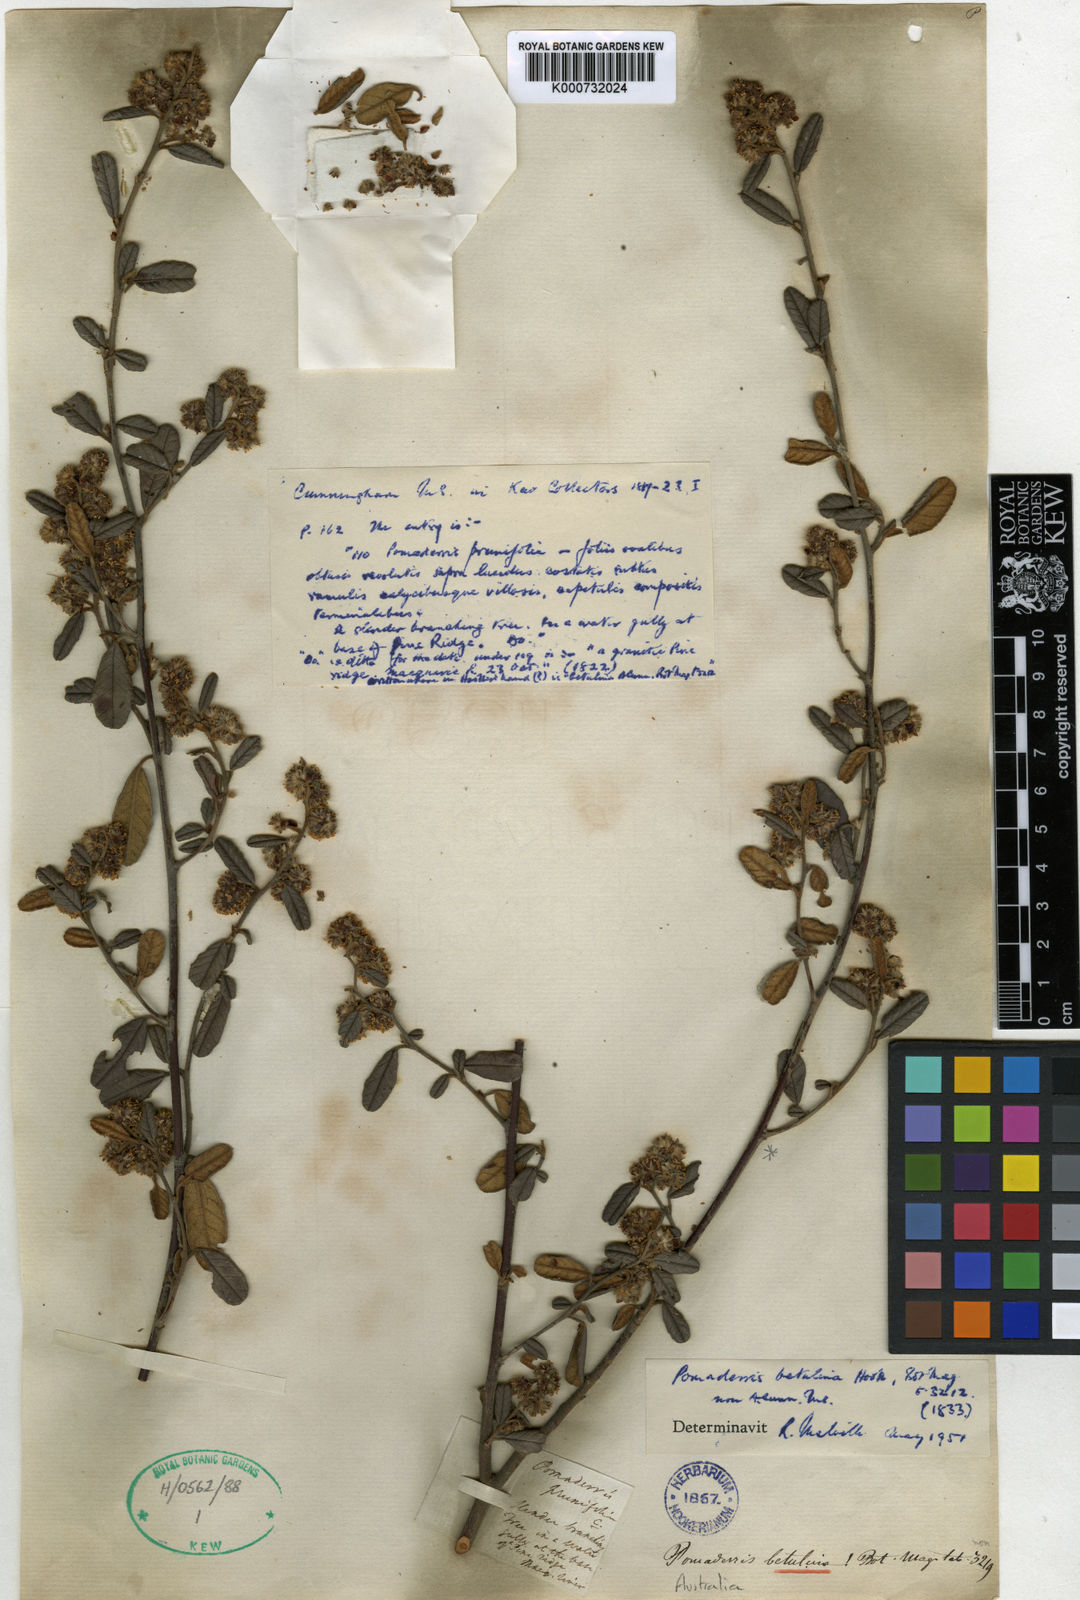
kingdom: Plantae
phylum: Tracheophyta
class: Magnoliopsida
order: Rosales
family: Rhamnaceae
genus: Pomaderris
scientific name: Pomaderris
